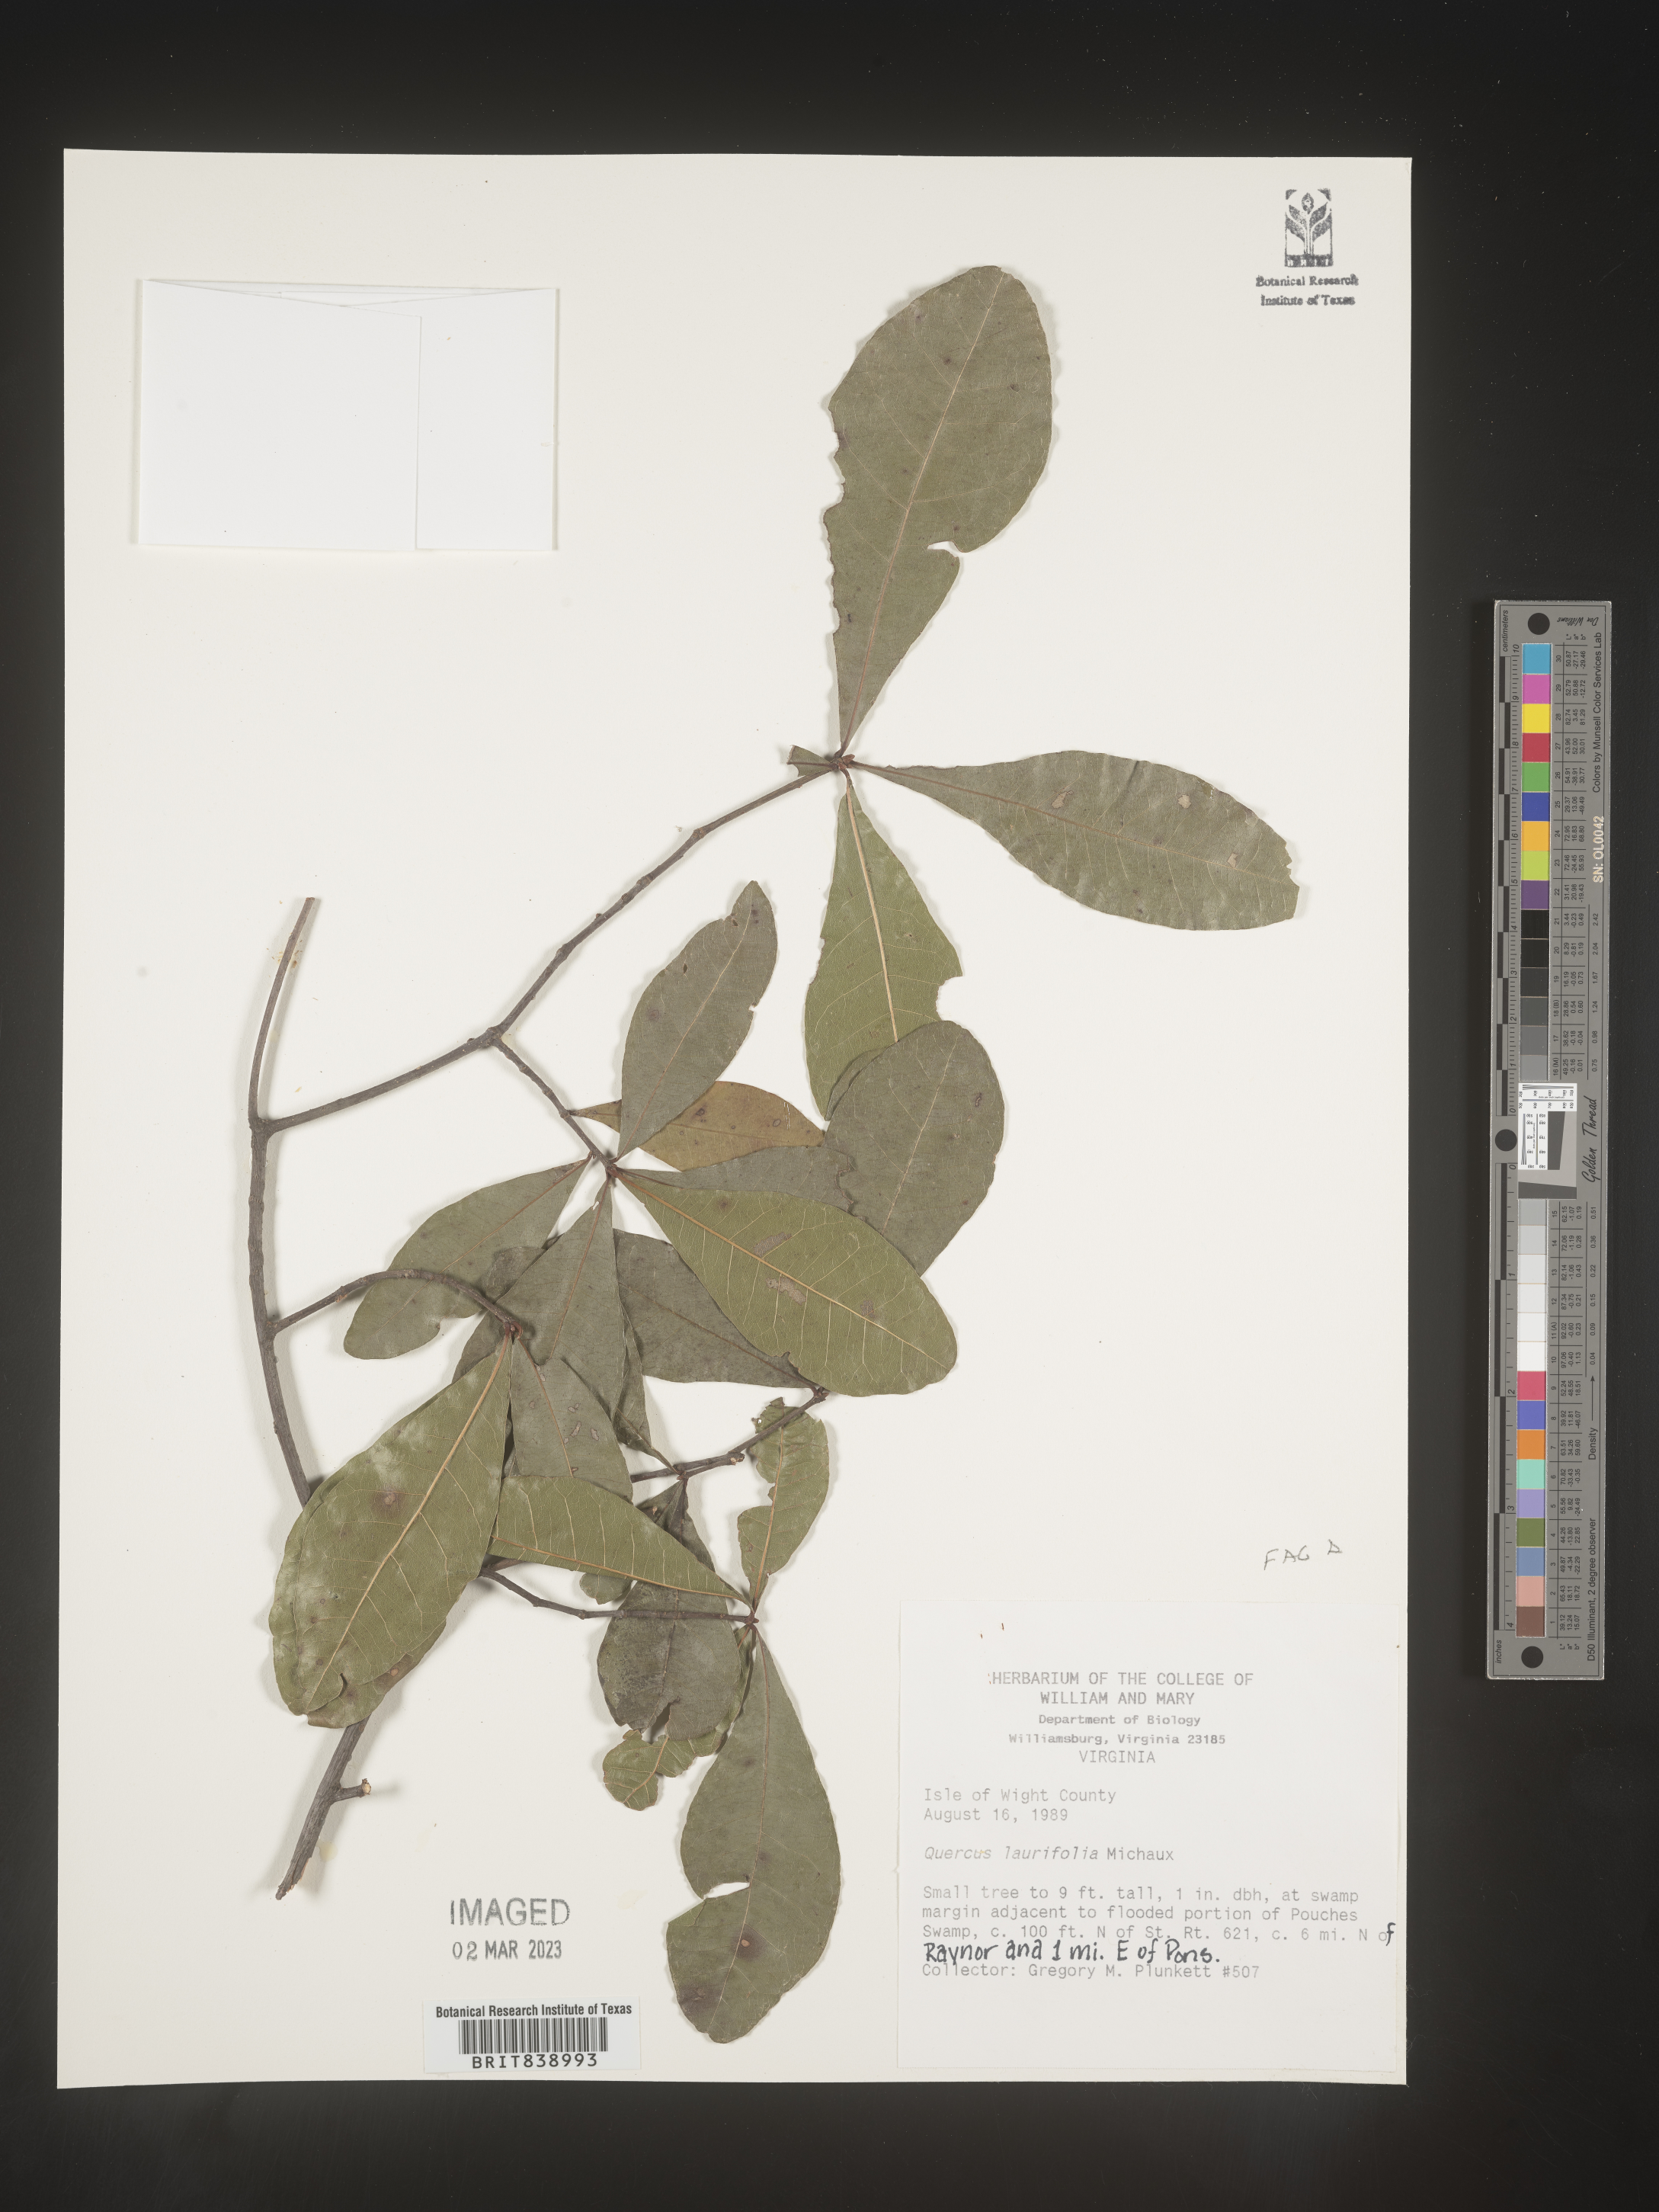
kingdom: Plantae
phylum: Tracheophyta
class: Magnoliopsida
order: Fagales
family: Fagaceae
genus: Quercus
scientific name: Quercus laurifolia
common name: Swamp laurel oak
